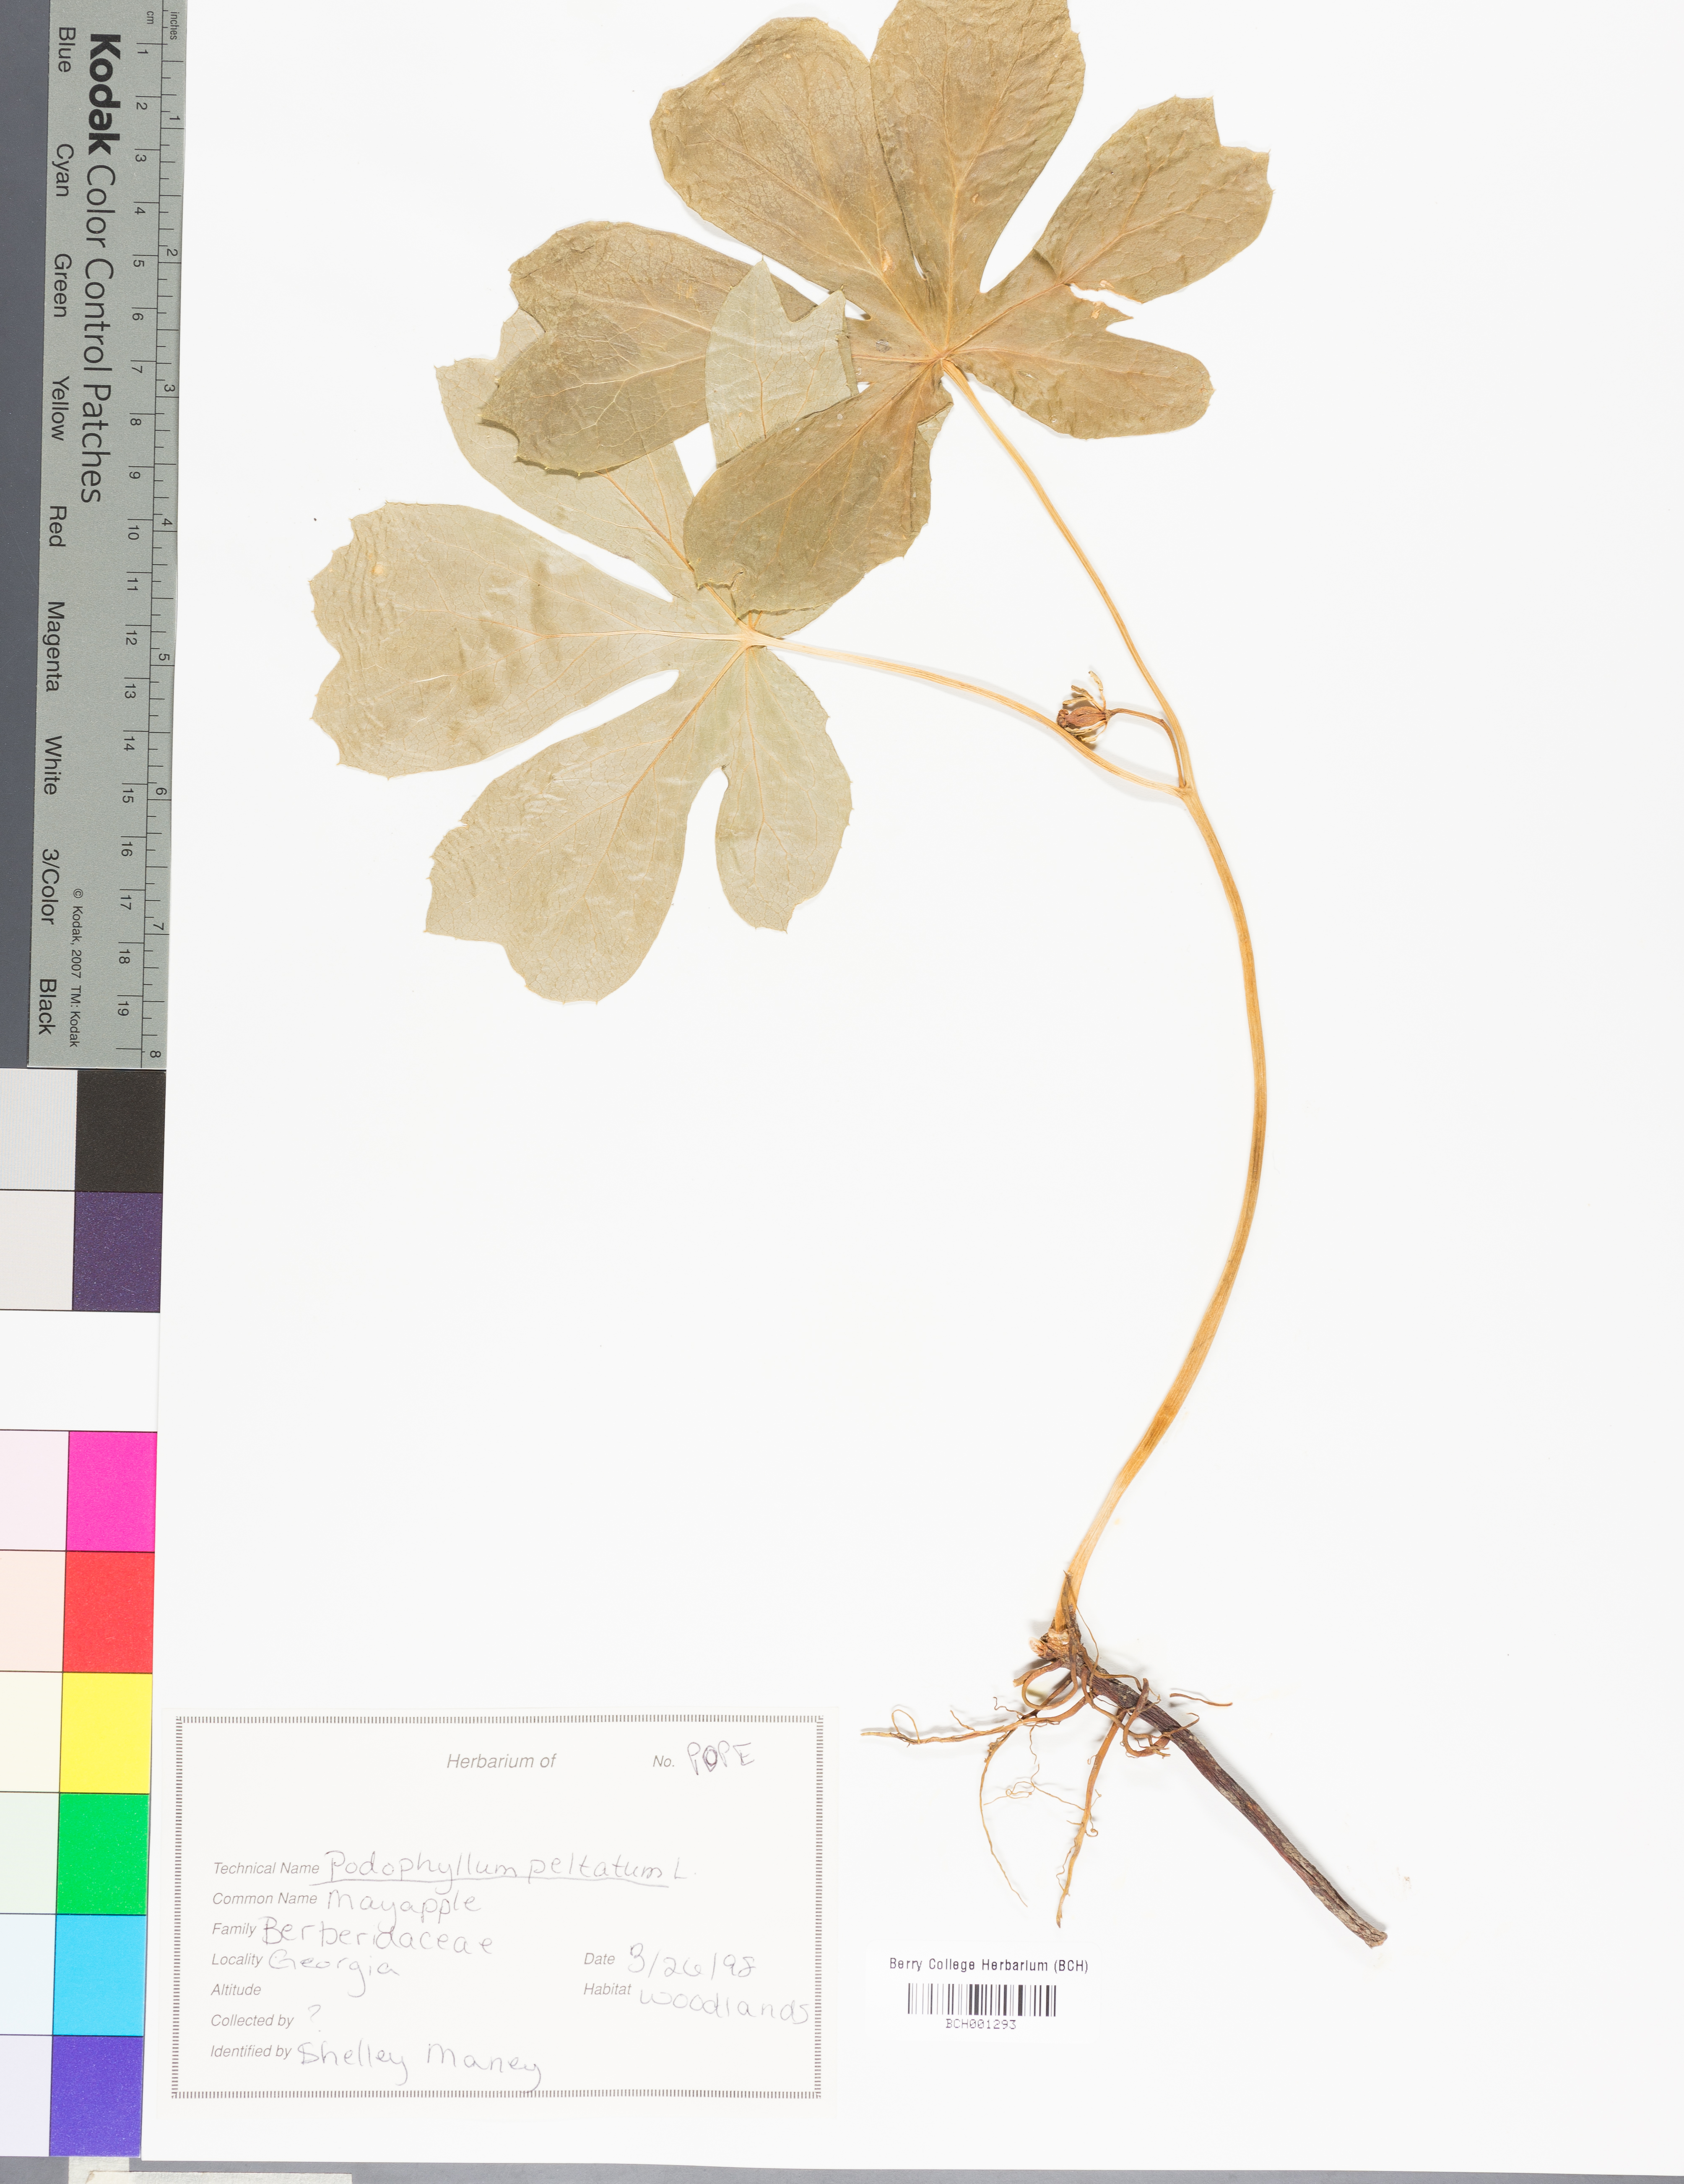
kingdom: Plantae
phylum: Tracheophyta
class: Magnoliopsida
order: Ranunculales
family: Berberidaceae
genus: Podophyllum
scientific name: Podophyllum peltatum
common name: Wild mandrake
